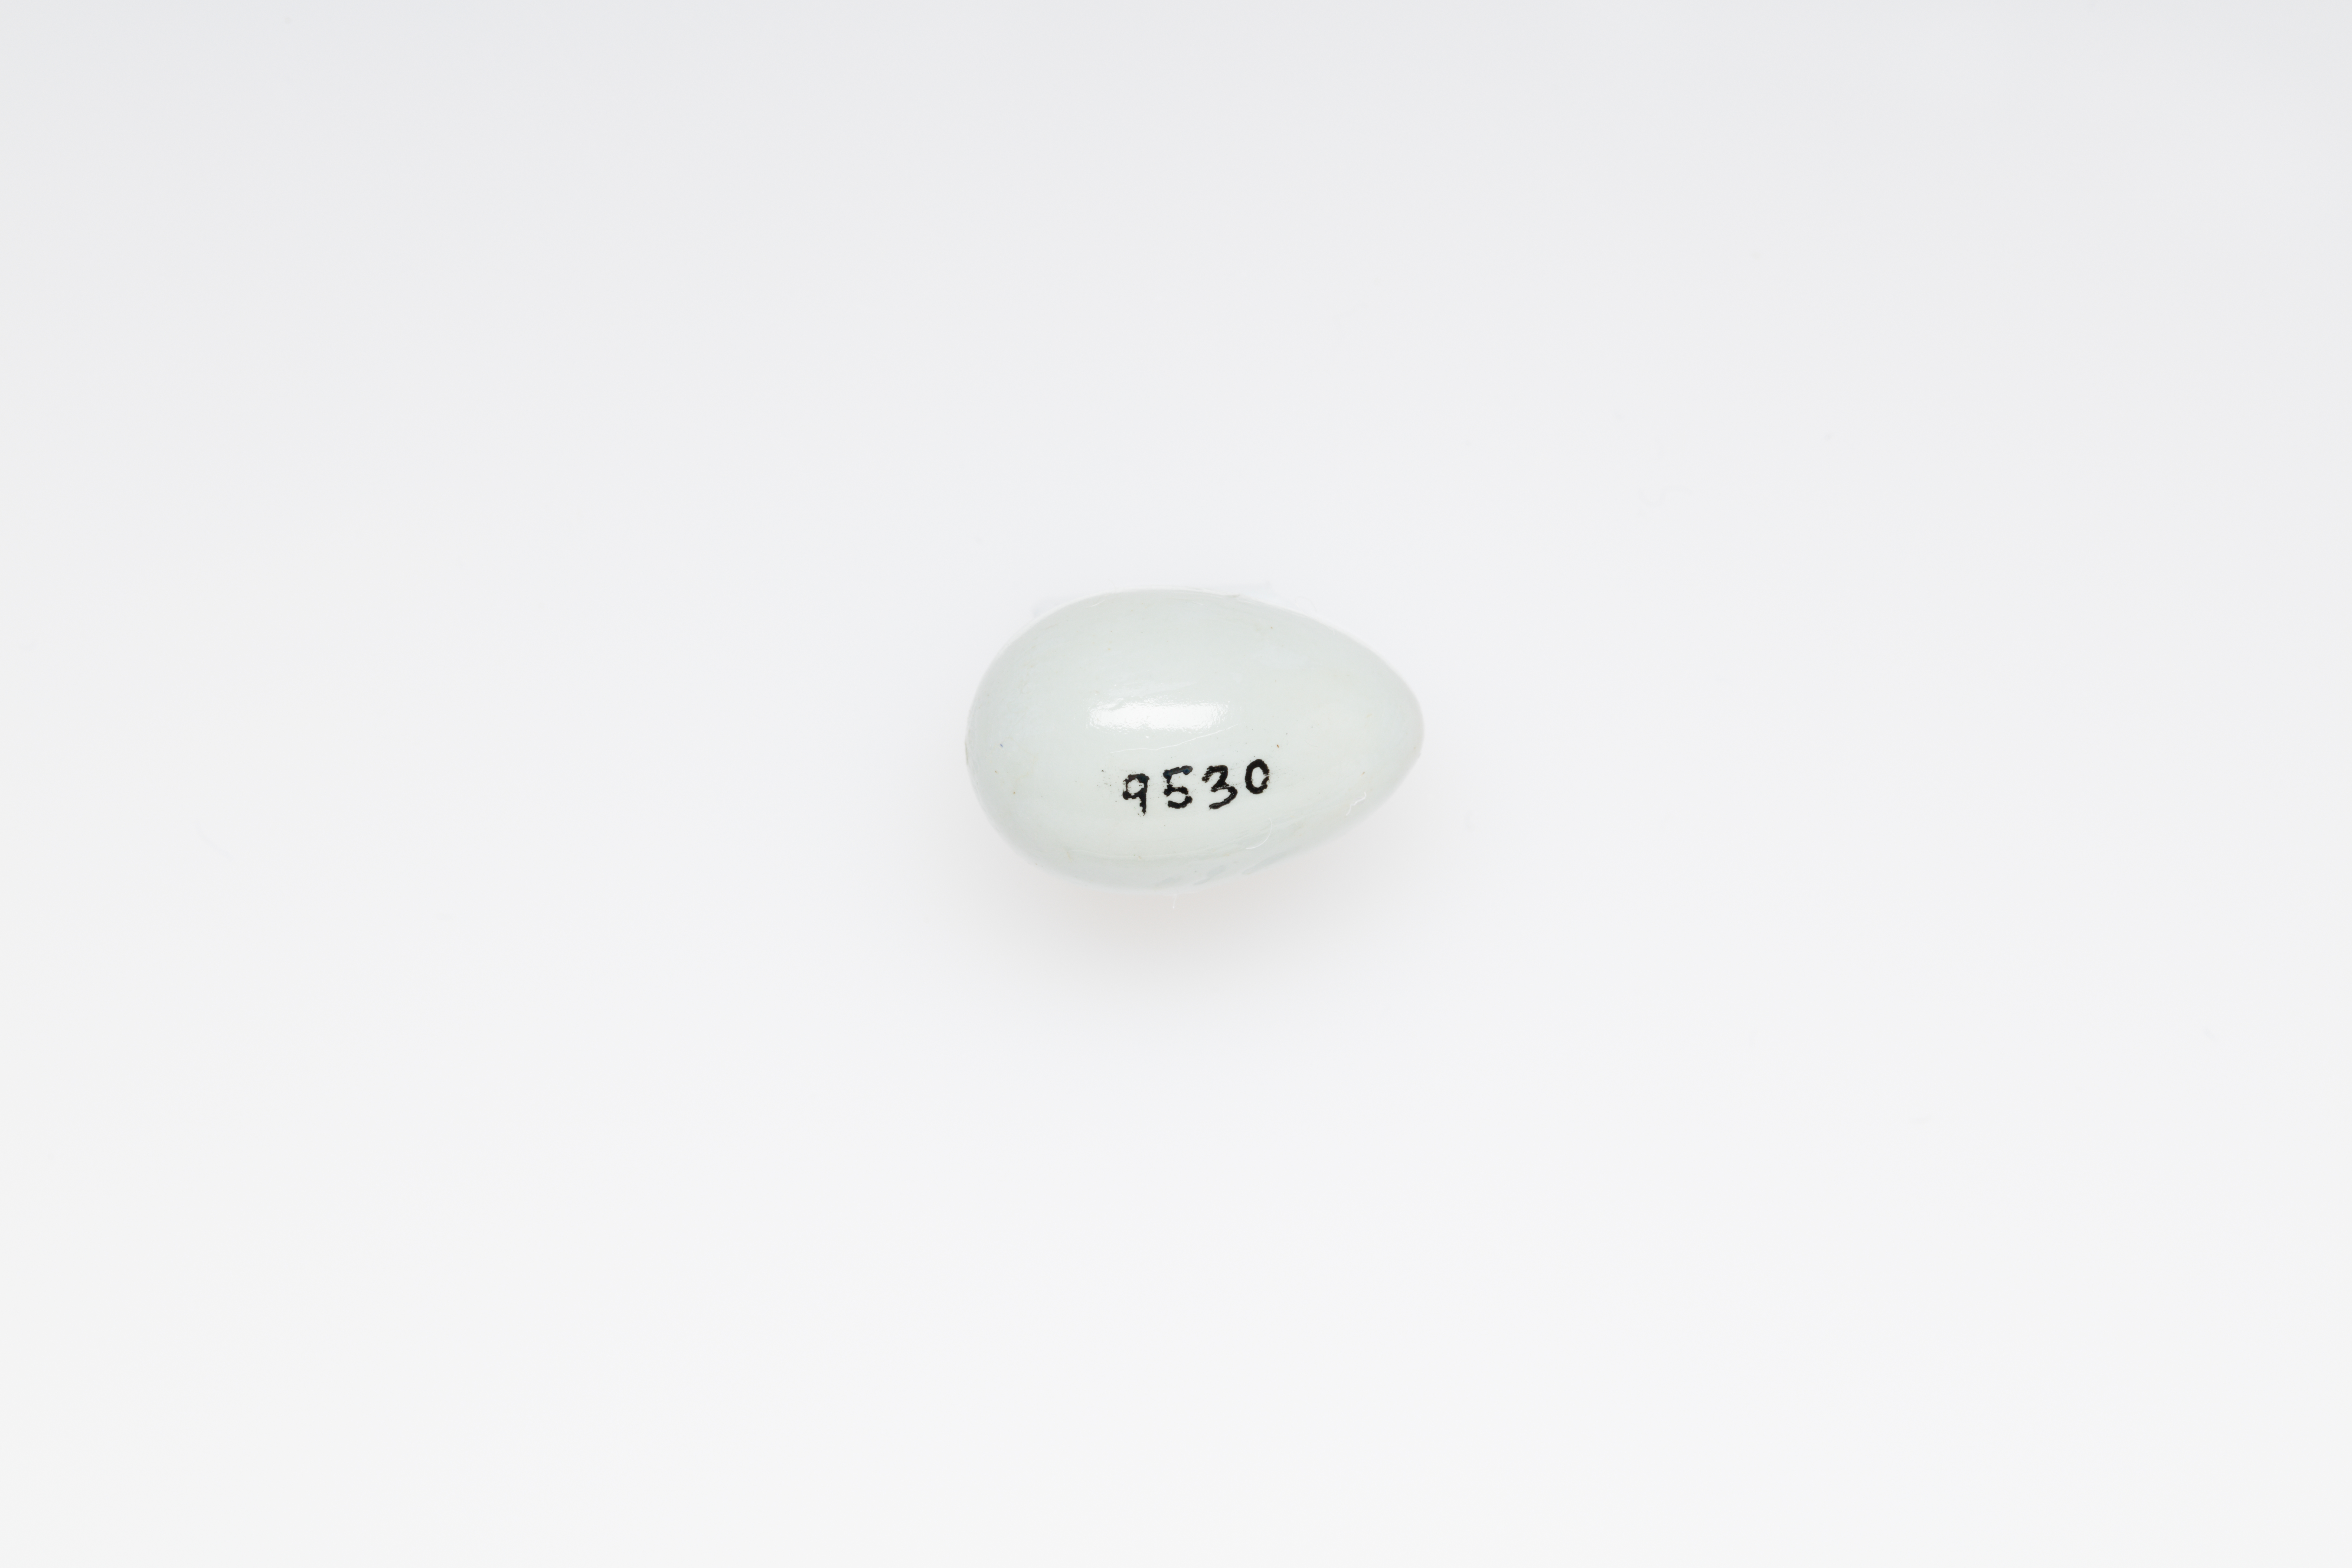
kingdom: Animalia
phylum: Chordata
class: Aves
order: Passeriformes
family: Zosteropidae
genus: Zosterops
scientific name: Zosterops lateralis
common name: Silvereye
